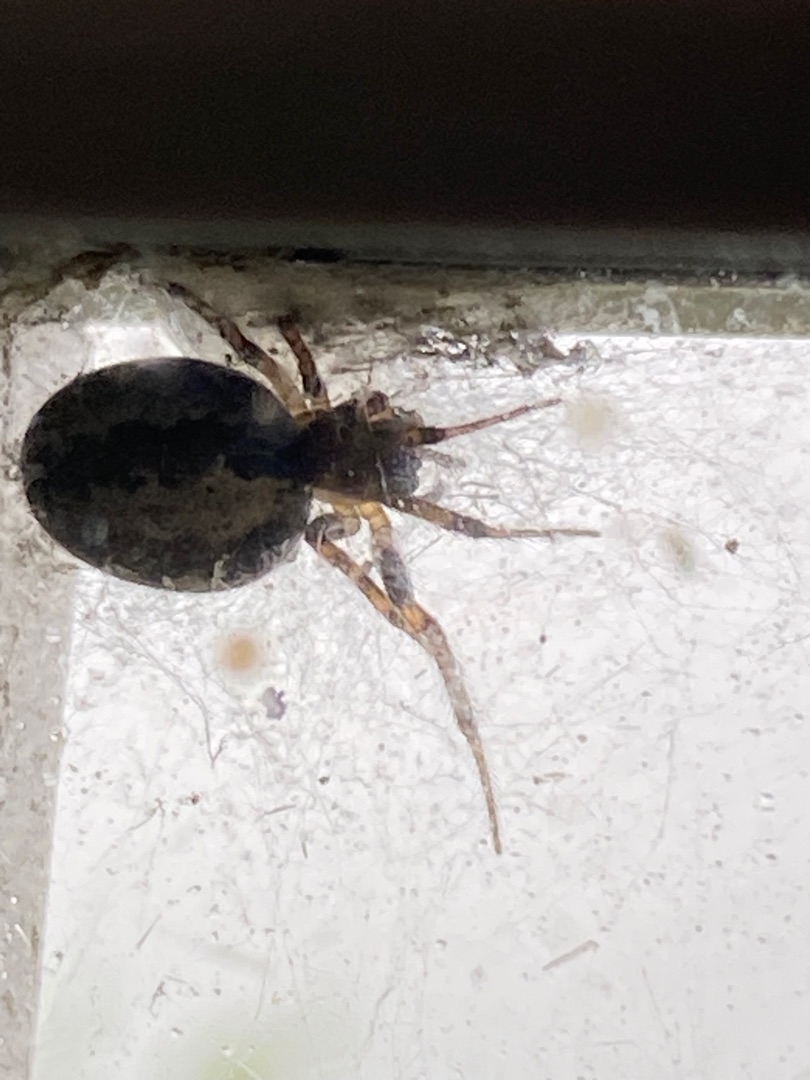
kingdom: Animalia
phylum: Arthropoda
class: Arachnida
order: Araneae
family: Araneidae
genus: Zygiella
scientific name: Zygiella x-notata
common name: Grå sektoredderkop
